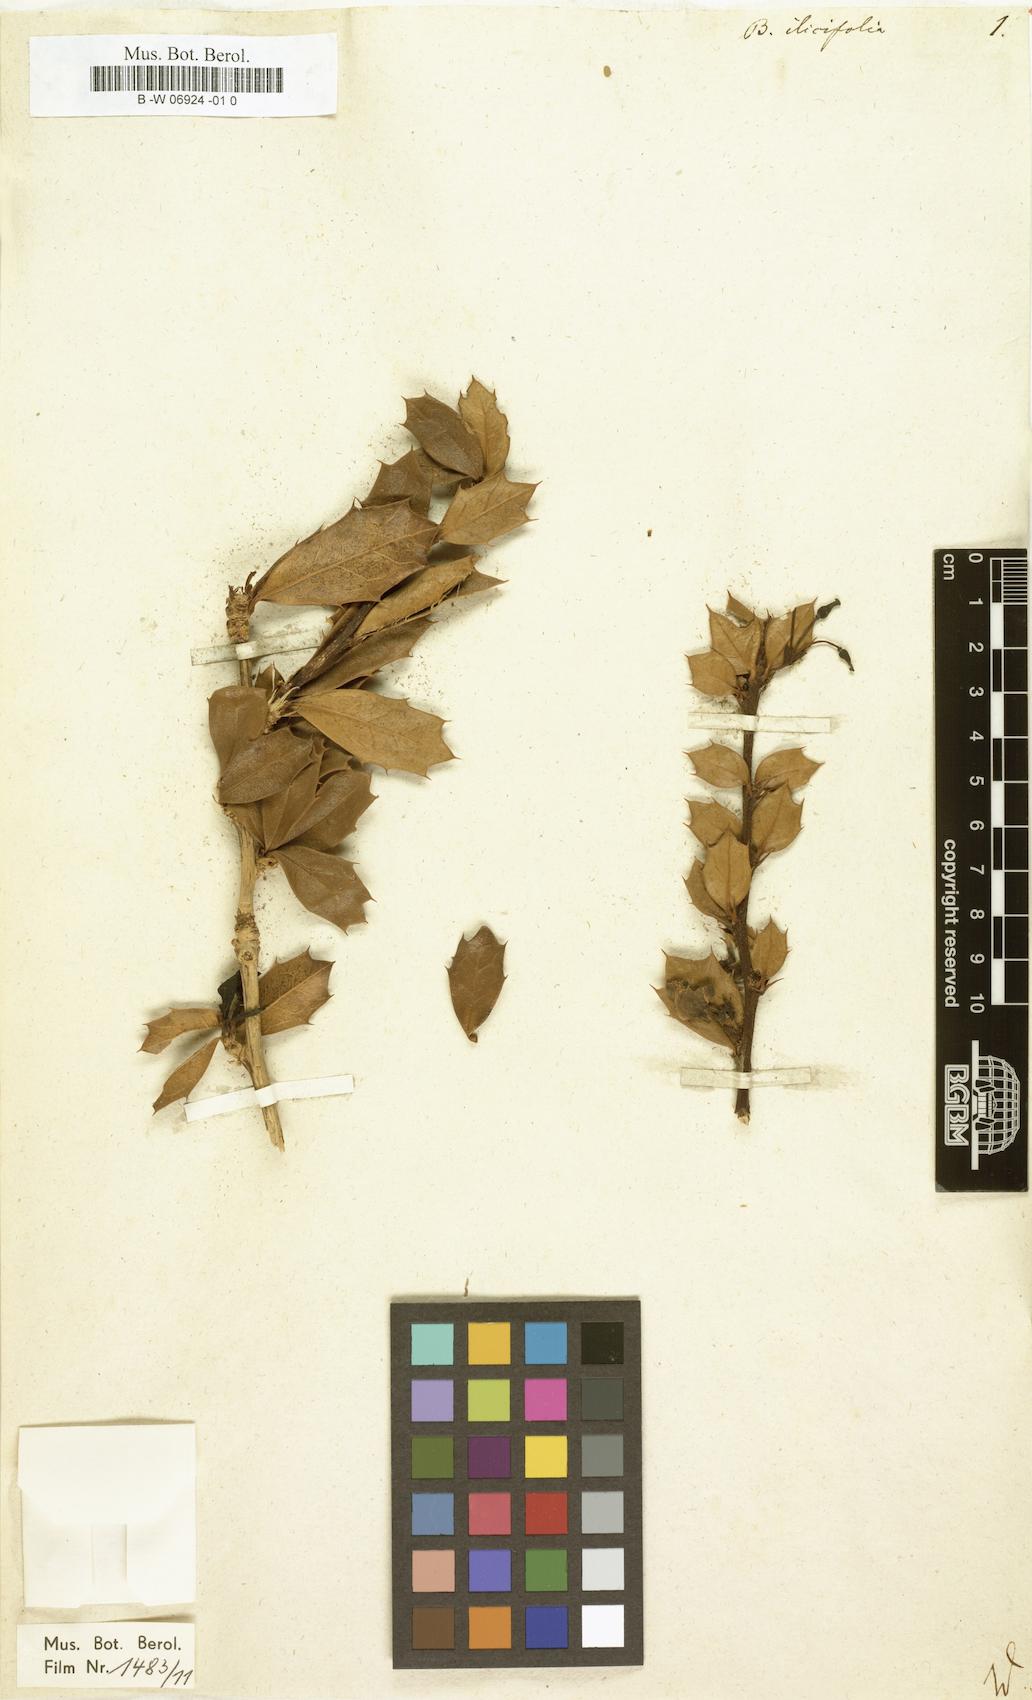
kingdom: Plantae
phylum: Tracheophyta
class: Magnoliopsida
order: Ranunculales
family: Berberidaceae
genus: Berberis
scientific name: Berberis ilicifolia
